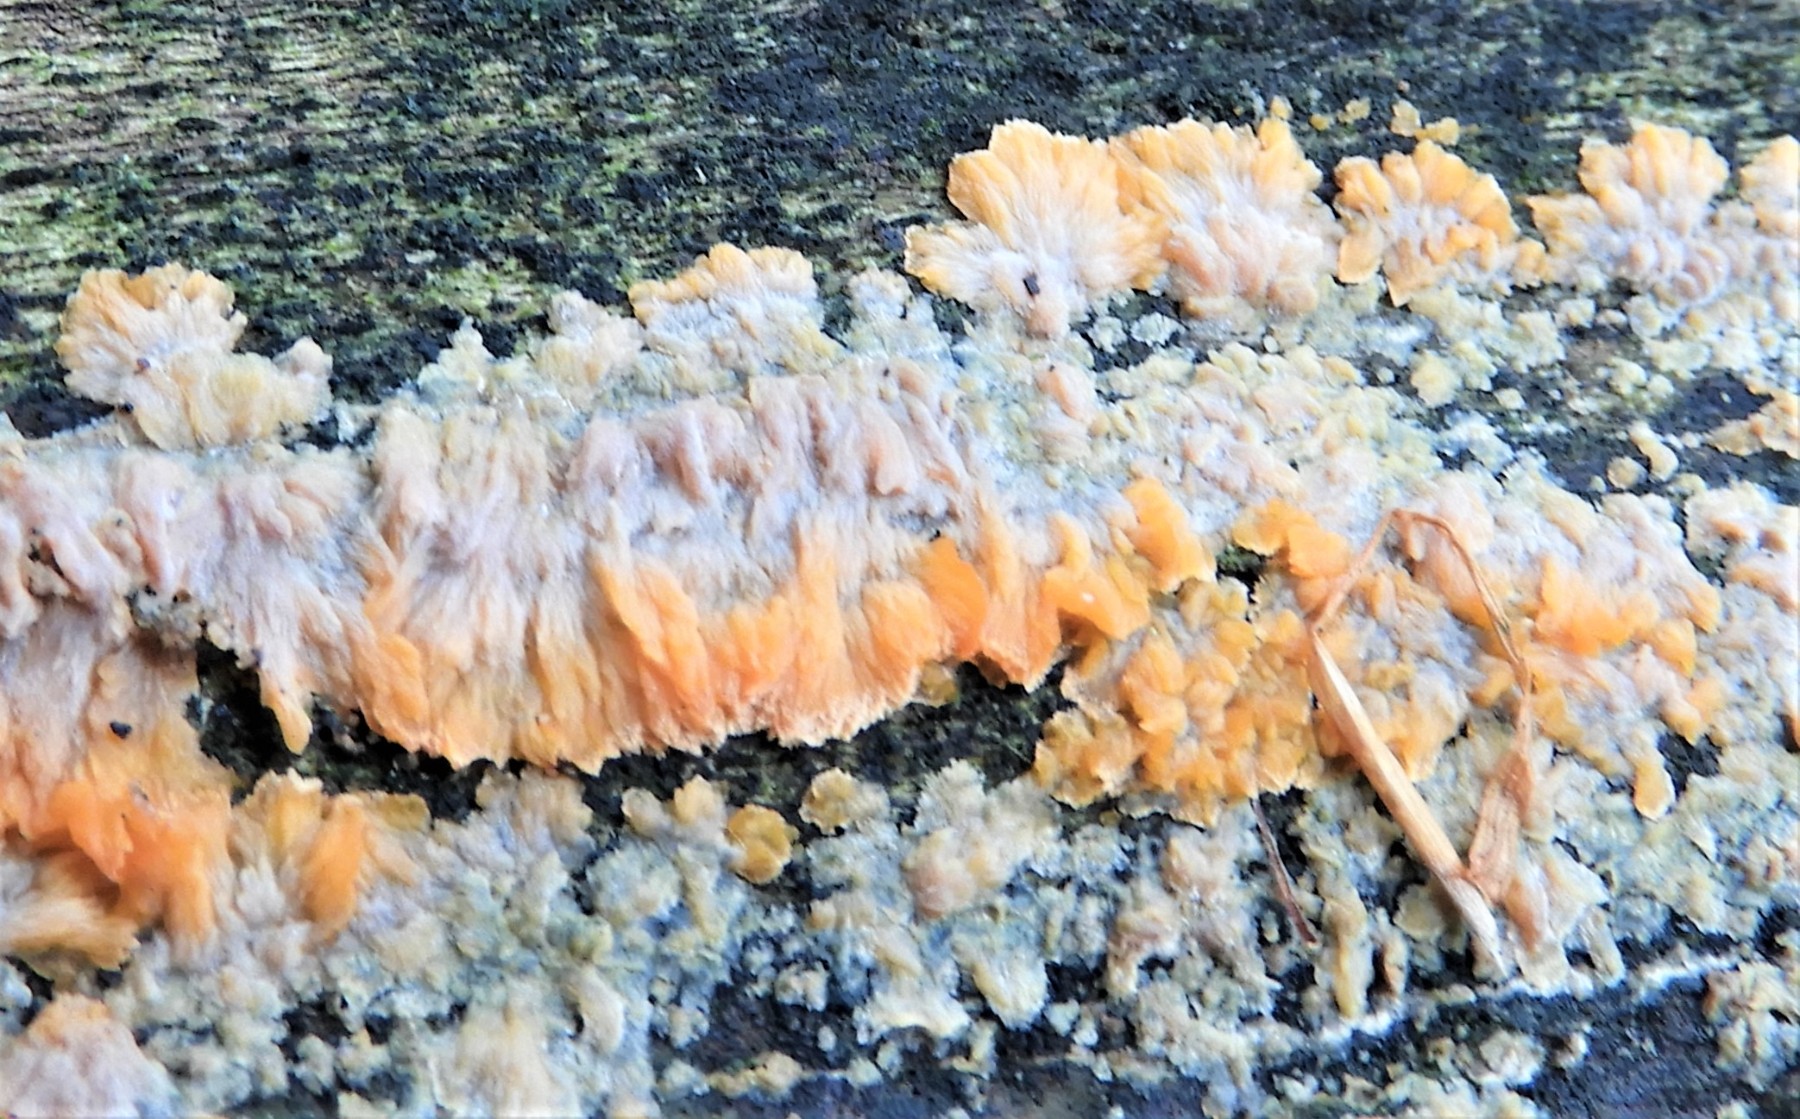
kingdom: Fungi
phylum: Basidiomycota
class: Agaricomycetes
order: Polyporales
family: Meruliaceae
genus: Phlebia
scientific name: Phlebia radiata
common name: stråle-åresvamp
